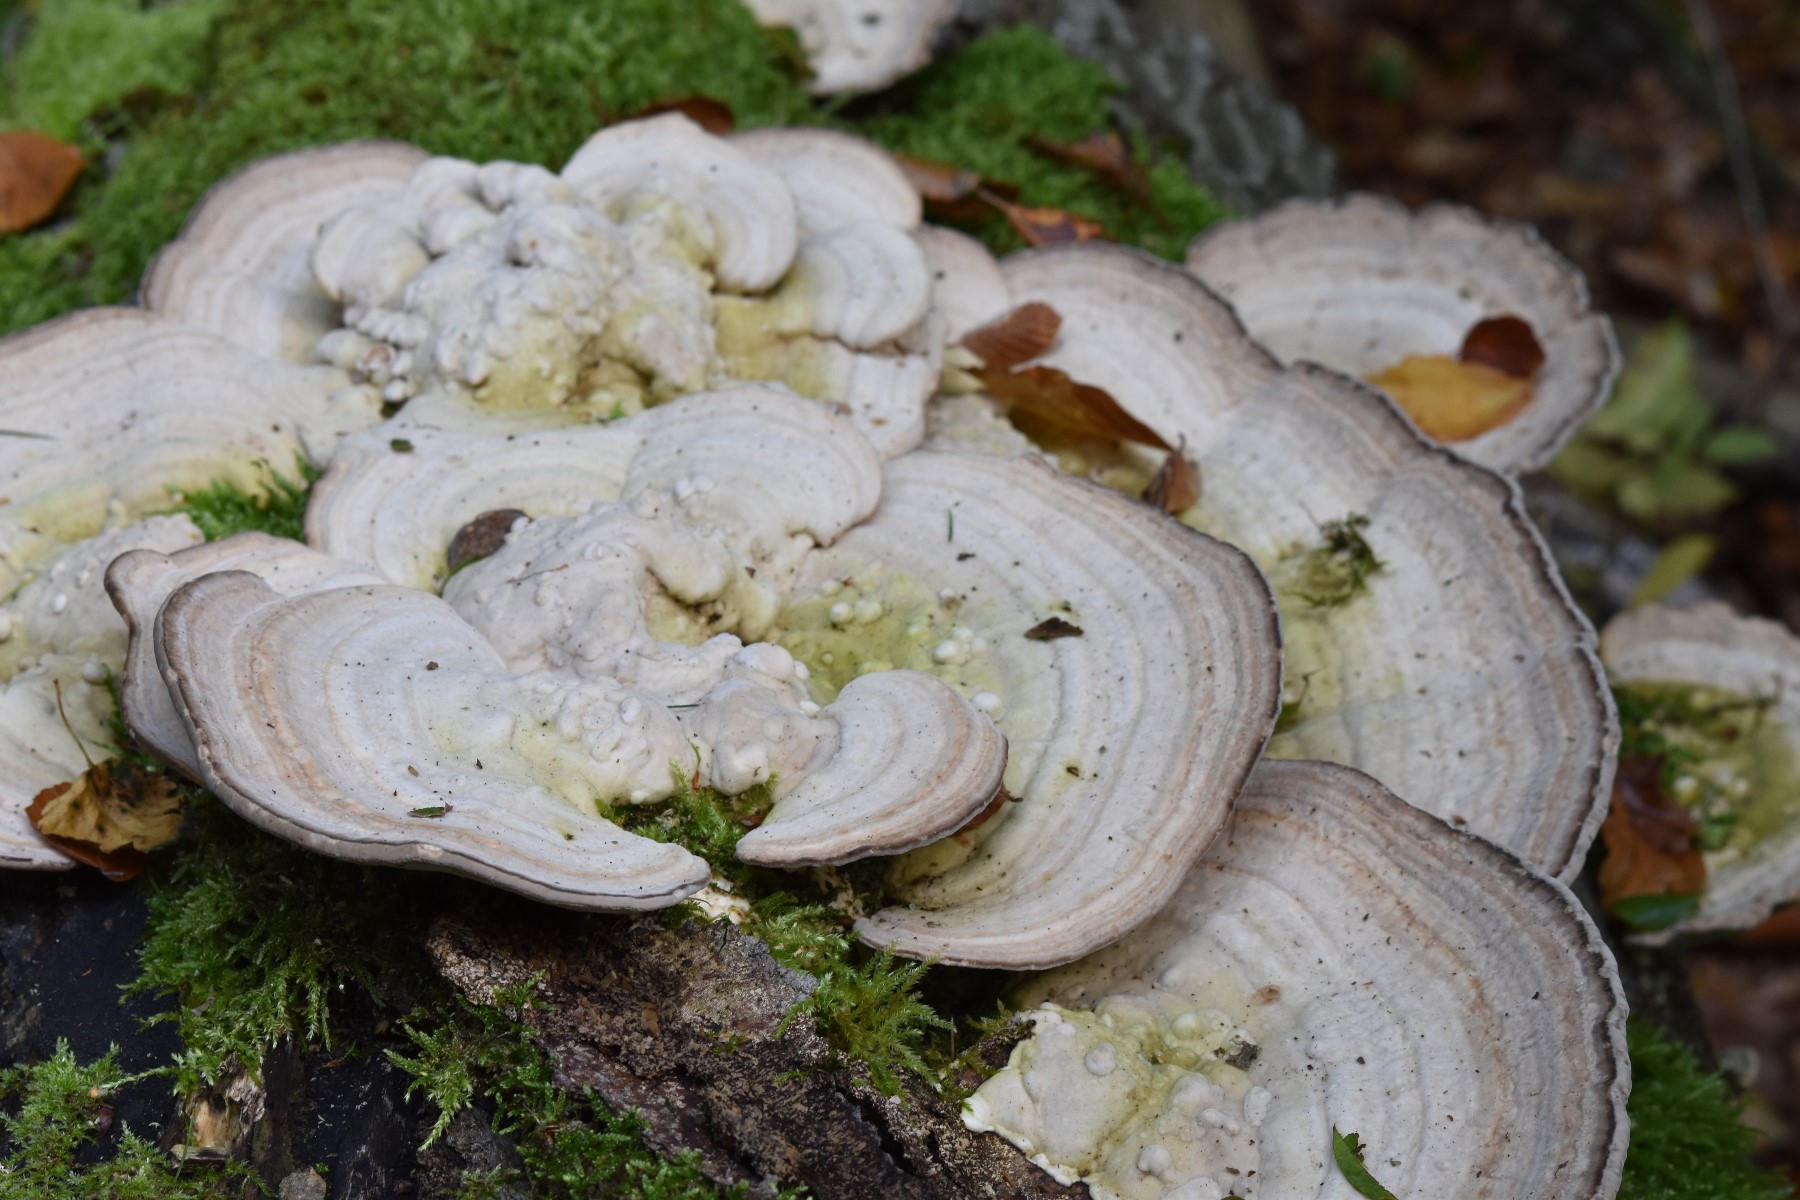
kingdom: Fungi
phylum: Basidiomycota
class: Agaricomycetes
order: Polyporales
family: Polyporaceae
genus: Trametes
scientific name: Trametes gibbosa
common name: puklet læderporesvamp
